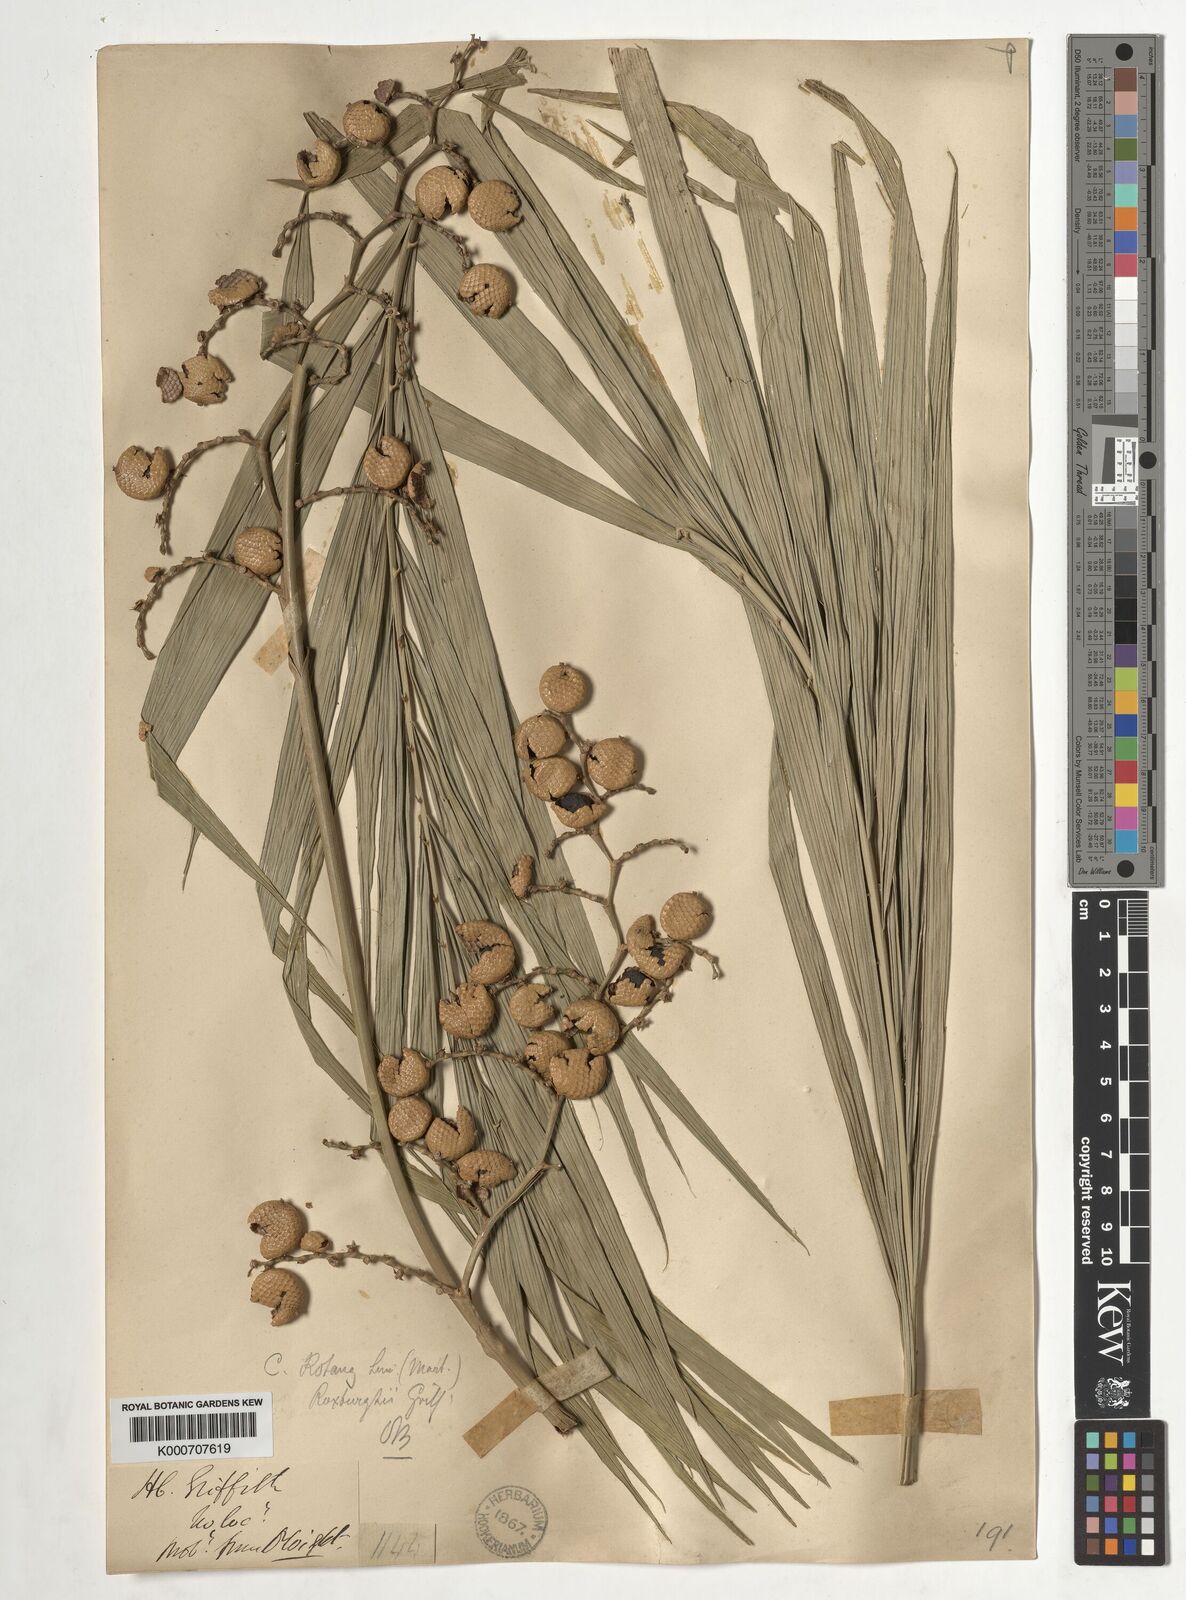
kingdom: Plantae
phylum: Tracheophyta
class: Liliopsida
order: Arecales
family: Arecaceae
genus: Calamus
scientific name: Calamus rotang
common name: Rattan cane
